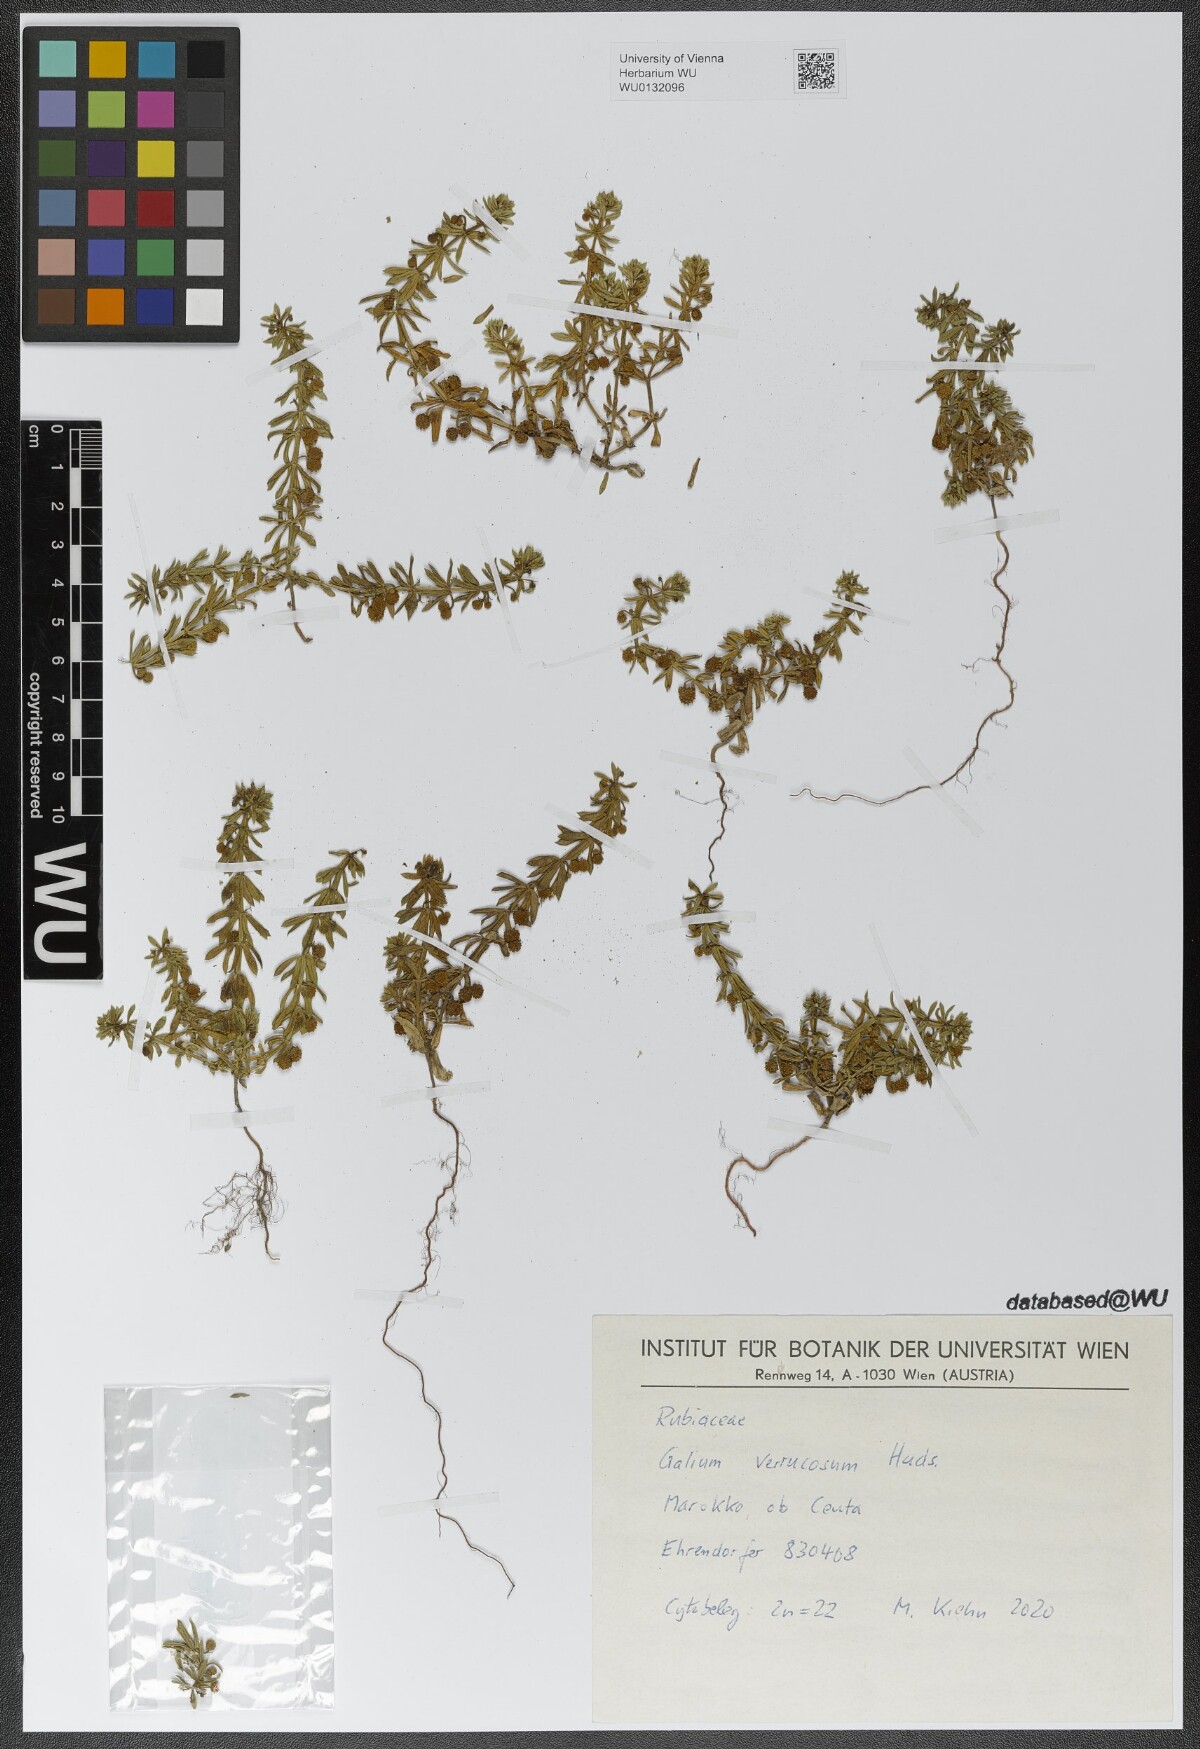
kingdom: Plantae
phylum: Tracheophyta
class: Magnoliopsida
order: Gentianales
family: Rubiaceae
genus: Galium
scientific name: Galium verrucosum
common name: Warty bedstraw
